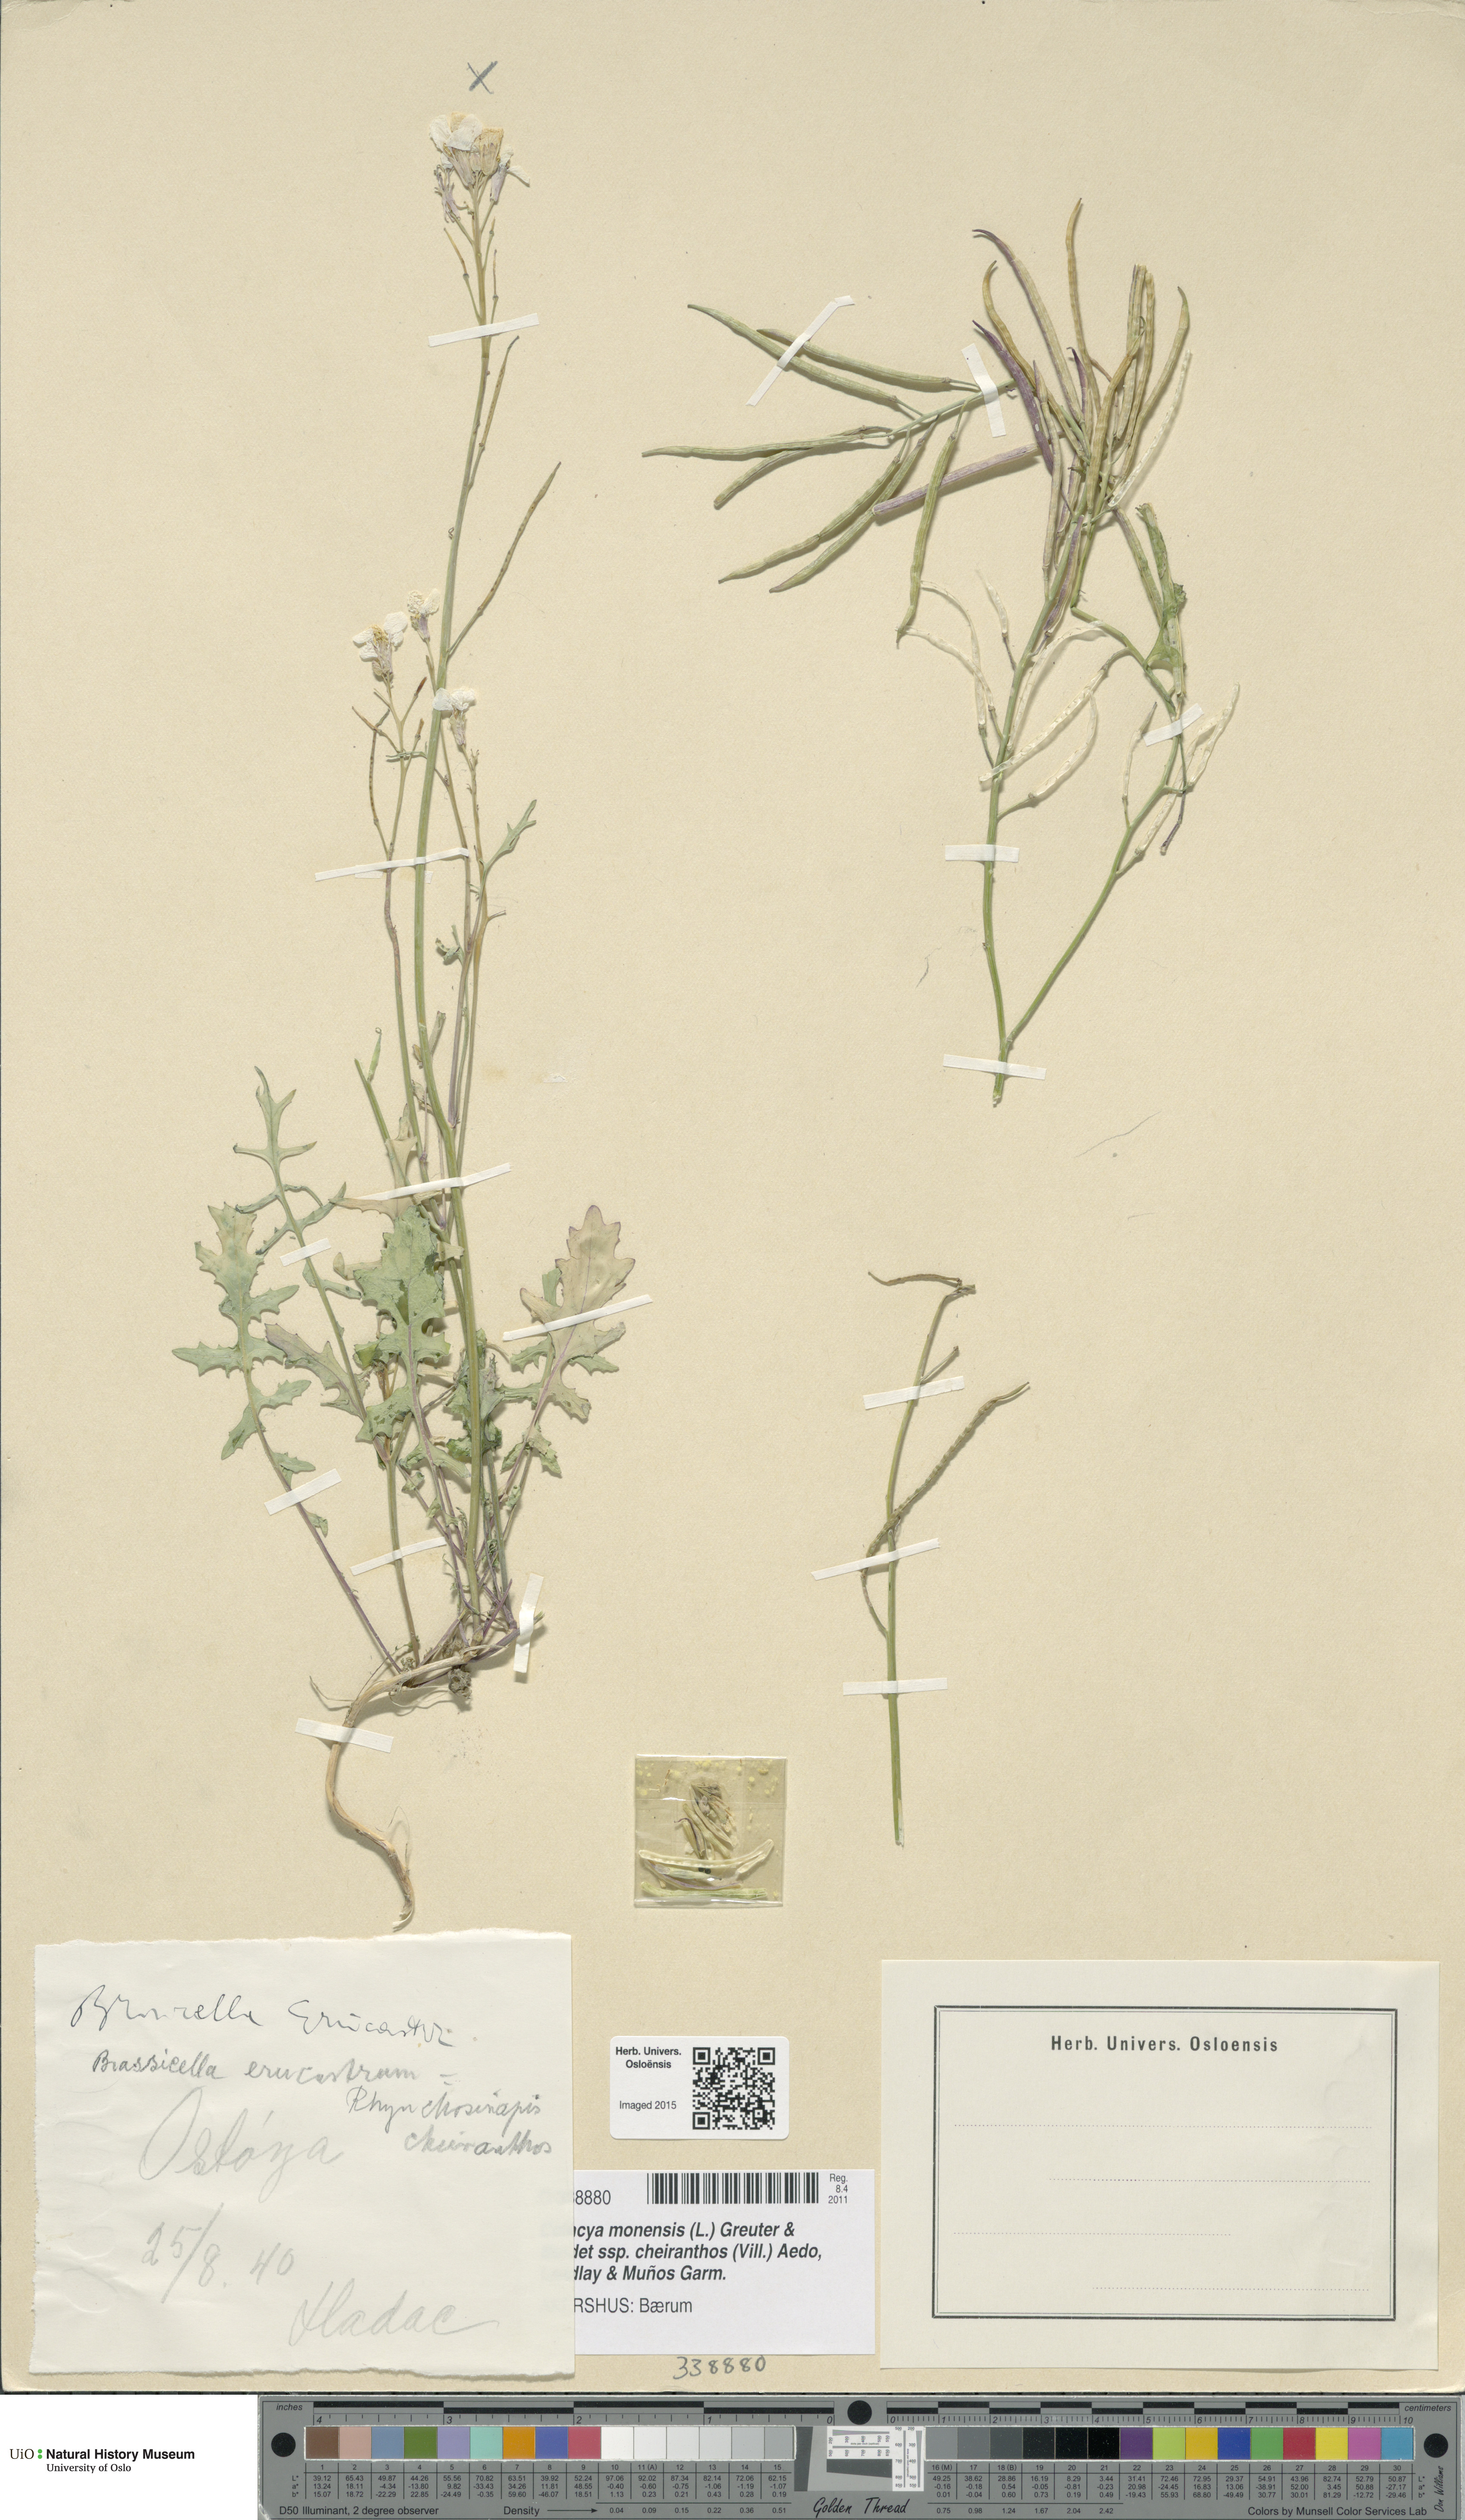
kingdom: Plantae
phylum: Tracheophyta
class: Magnoliopsida
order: Brassicales
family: Brassicaceae
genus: Erucastrum
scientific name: Erucastrum nasturtiifolium
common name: Watercress-leaf rocket
